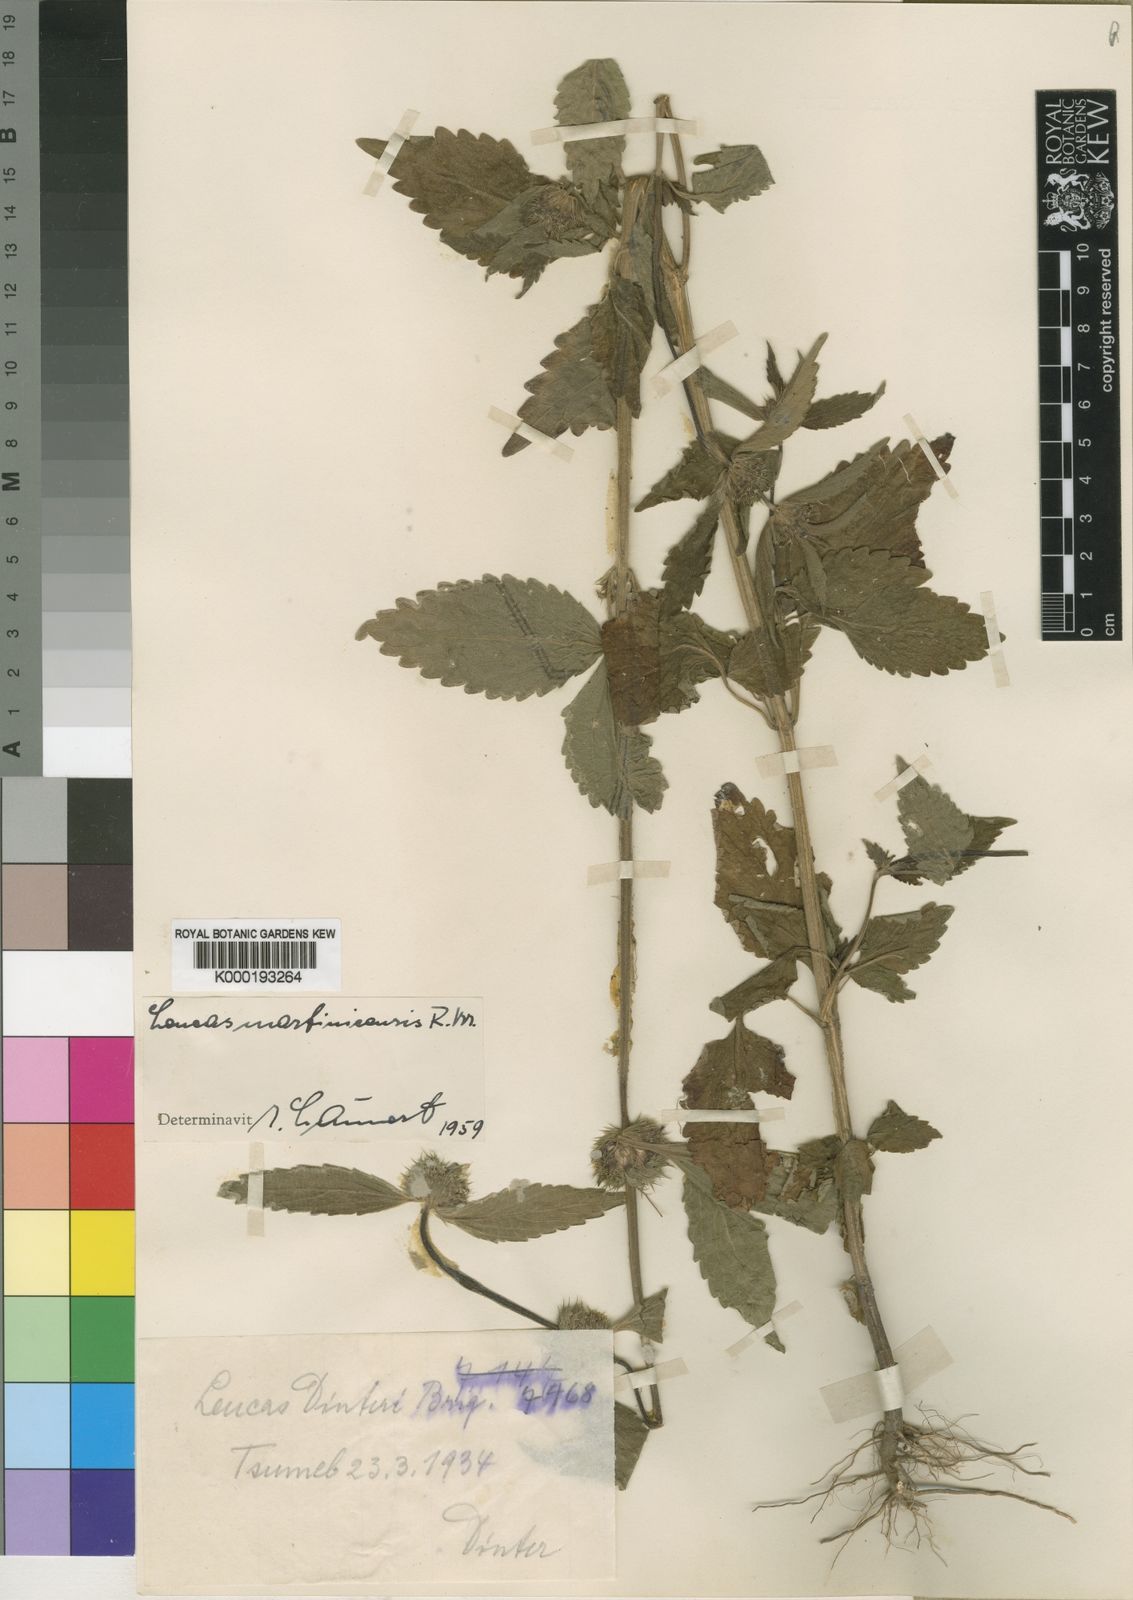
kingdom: Plantae
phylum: Tracheophyta
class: Magnoliopsida
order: Lamiales
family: Lamiaceae
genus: Leucas
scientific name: Leucas glabrata
